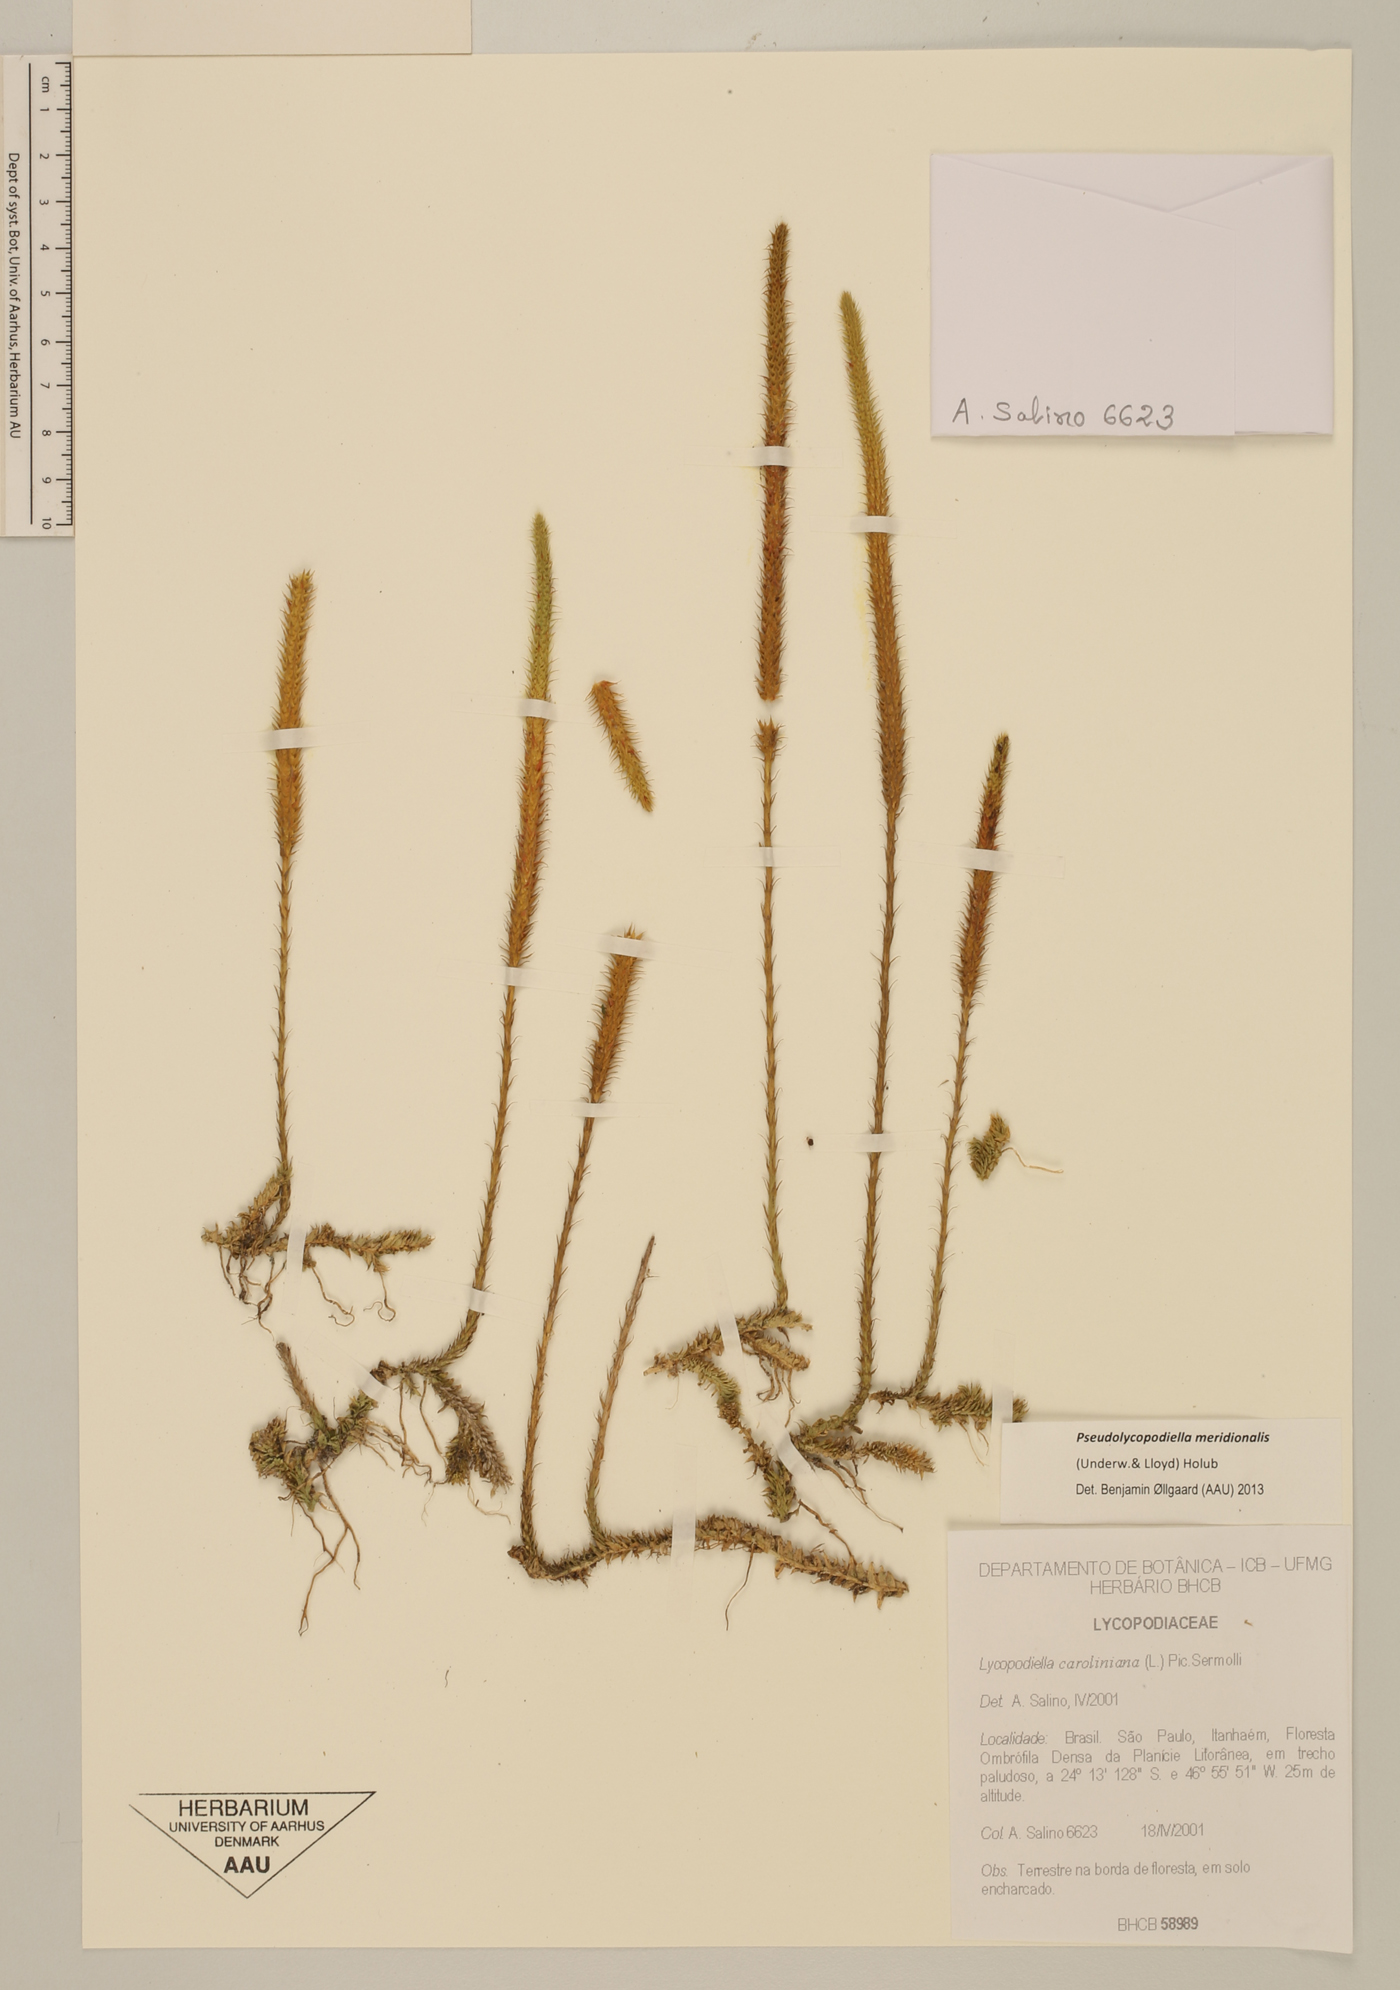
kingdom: Plantae
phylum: Tracheophyta
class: Lycopodiopsida
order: Lycopodiales
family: Lycopodiaceae
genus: Pseudolycopodiella
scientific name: Pseudolycopodiella meridionalis
